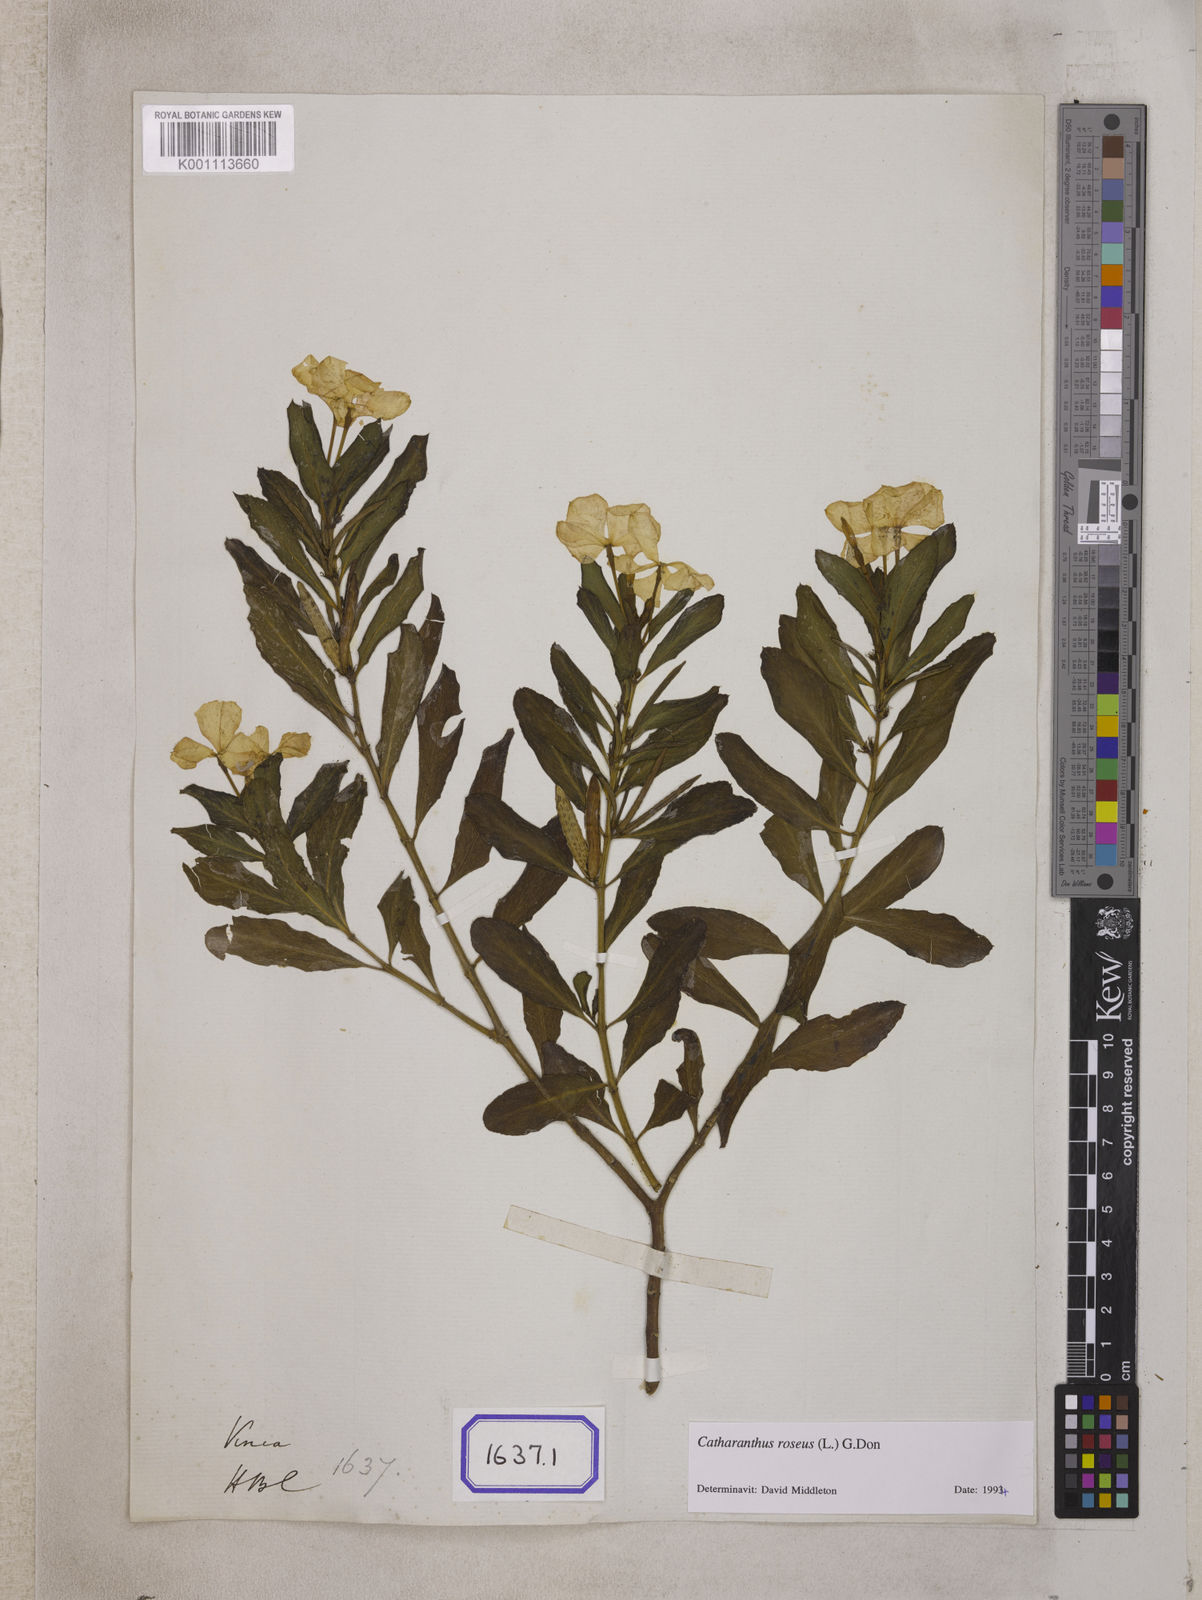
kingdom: Plantae
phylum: Tracheophyta
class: Magnoliopsida
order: Gentianales
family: Apocynaceae
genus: Catharanthus
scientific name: Catharanthus roseus
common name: Madagascar periwinkle
